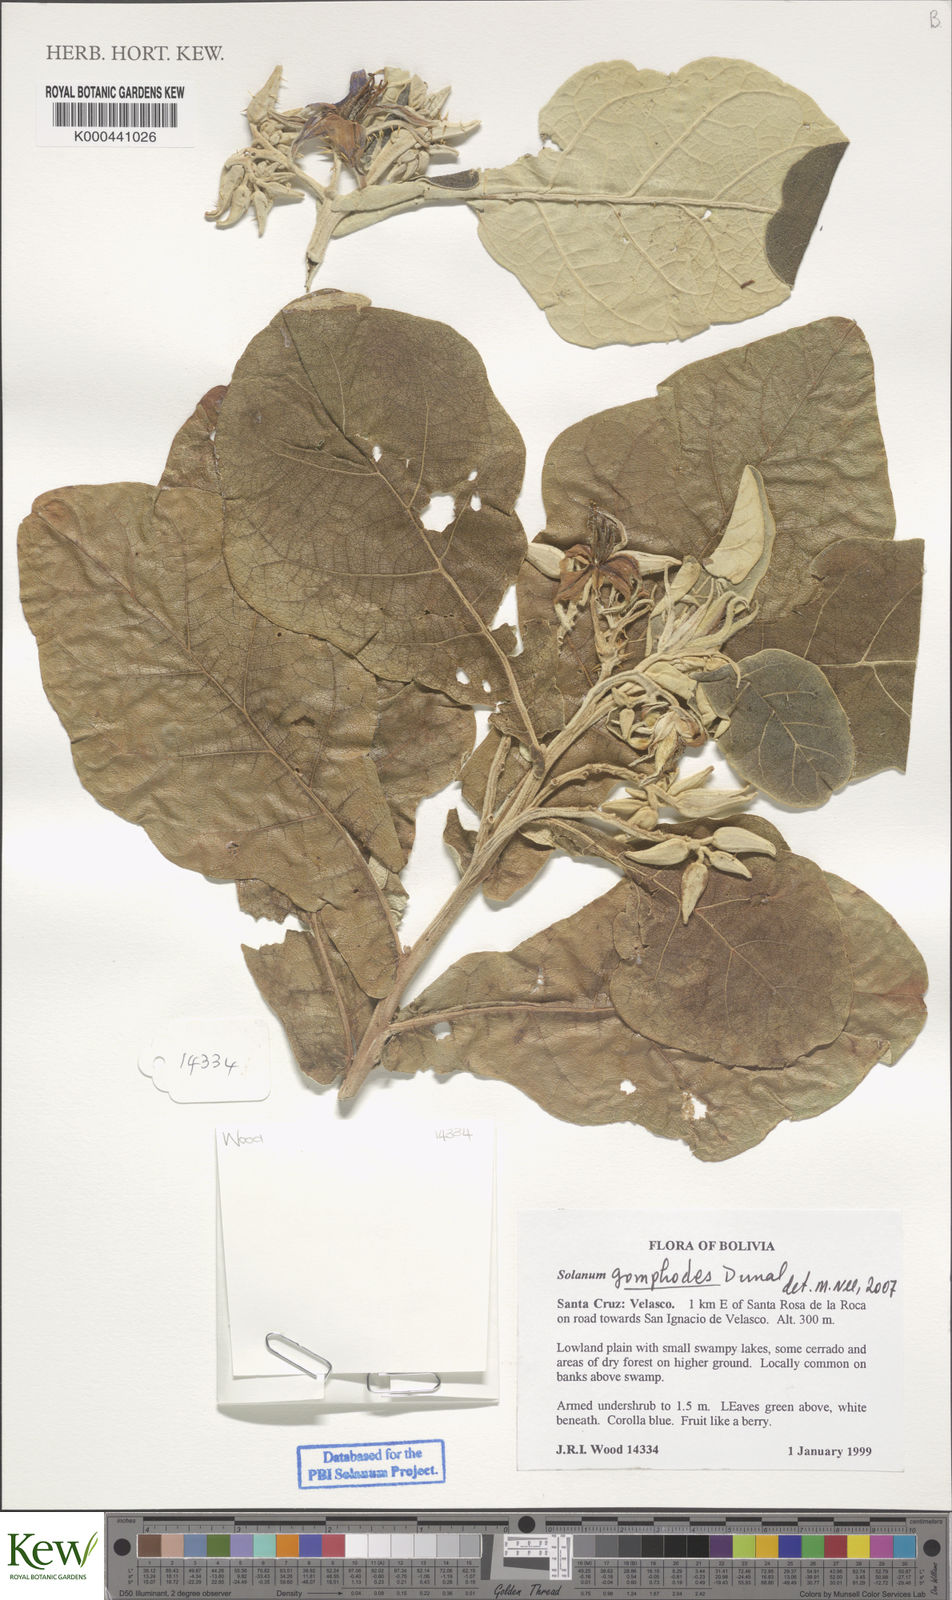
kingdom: Plantae
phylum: Tracheophyta
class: Magnoliopsida
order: Solanales
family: Solanaceae
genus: Solanum
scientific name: Solanum gomphodes
